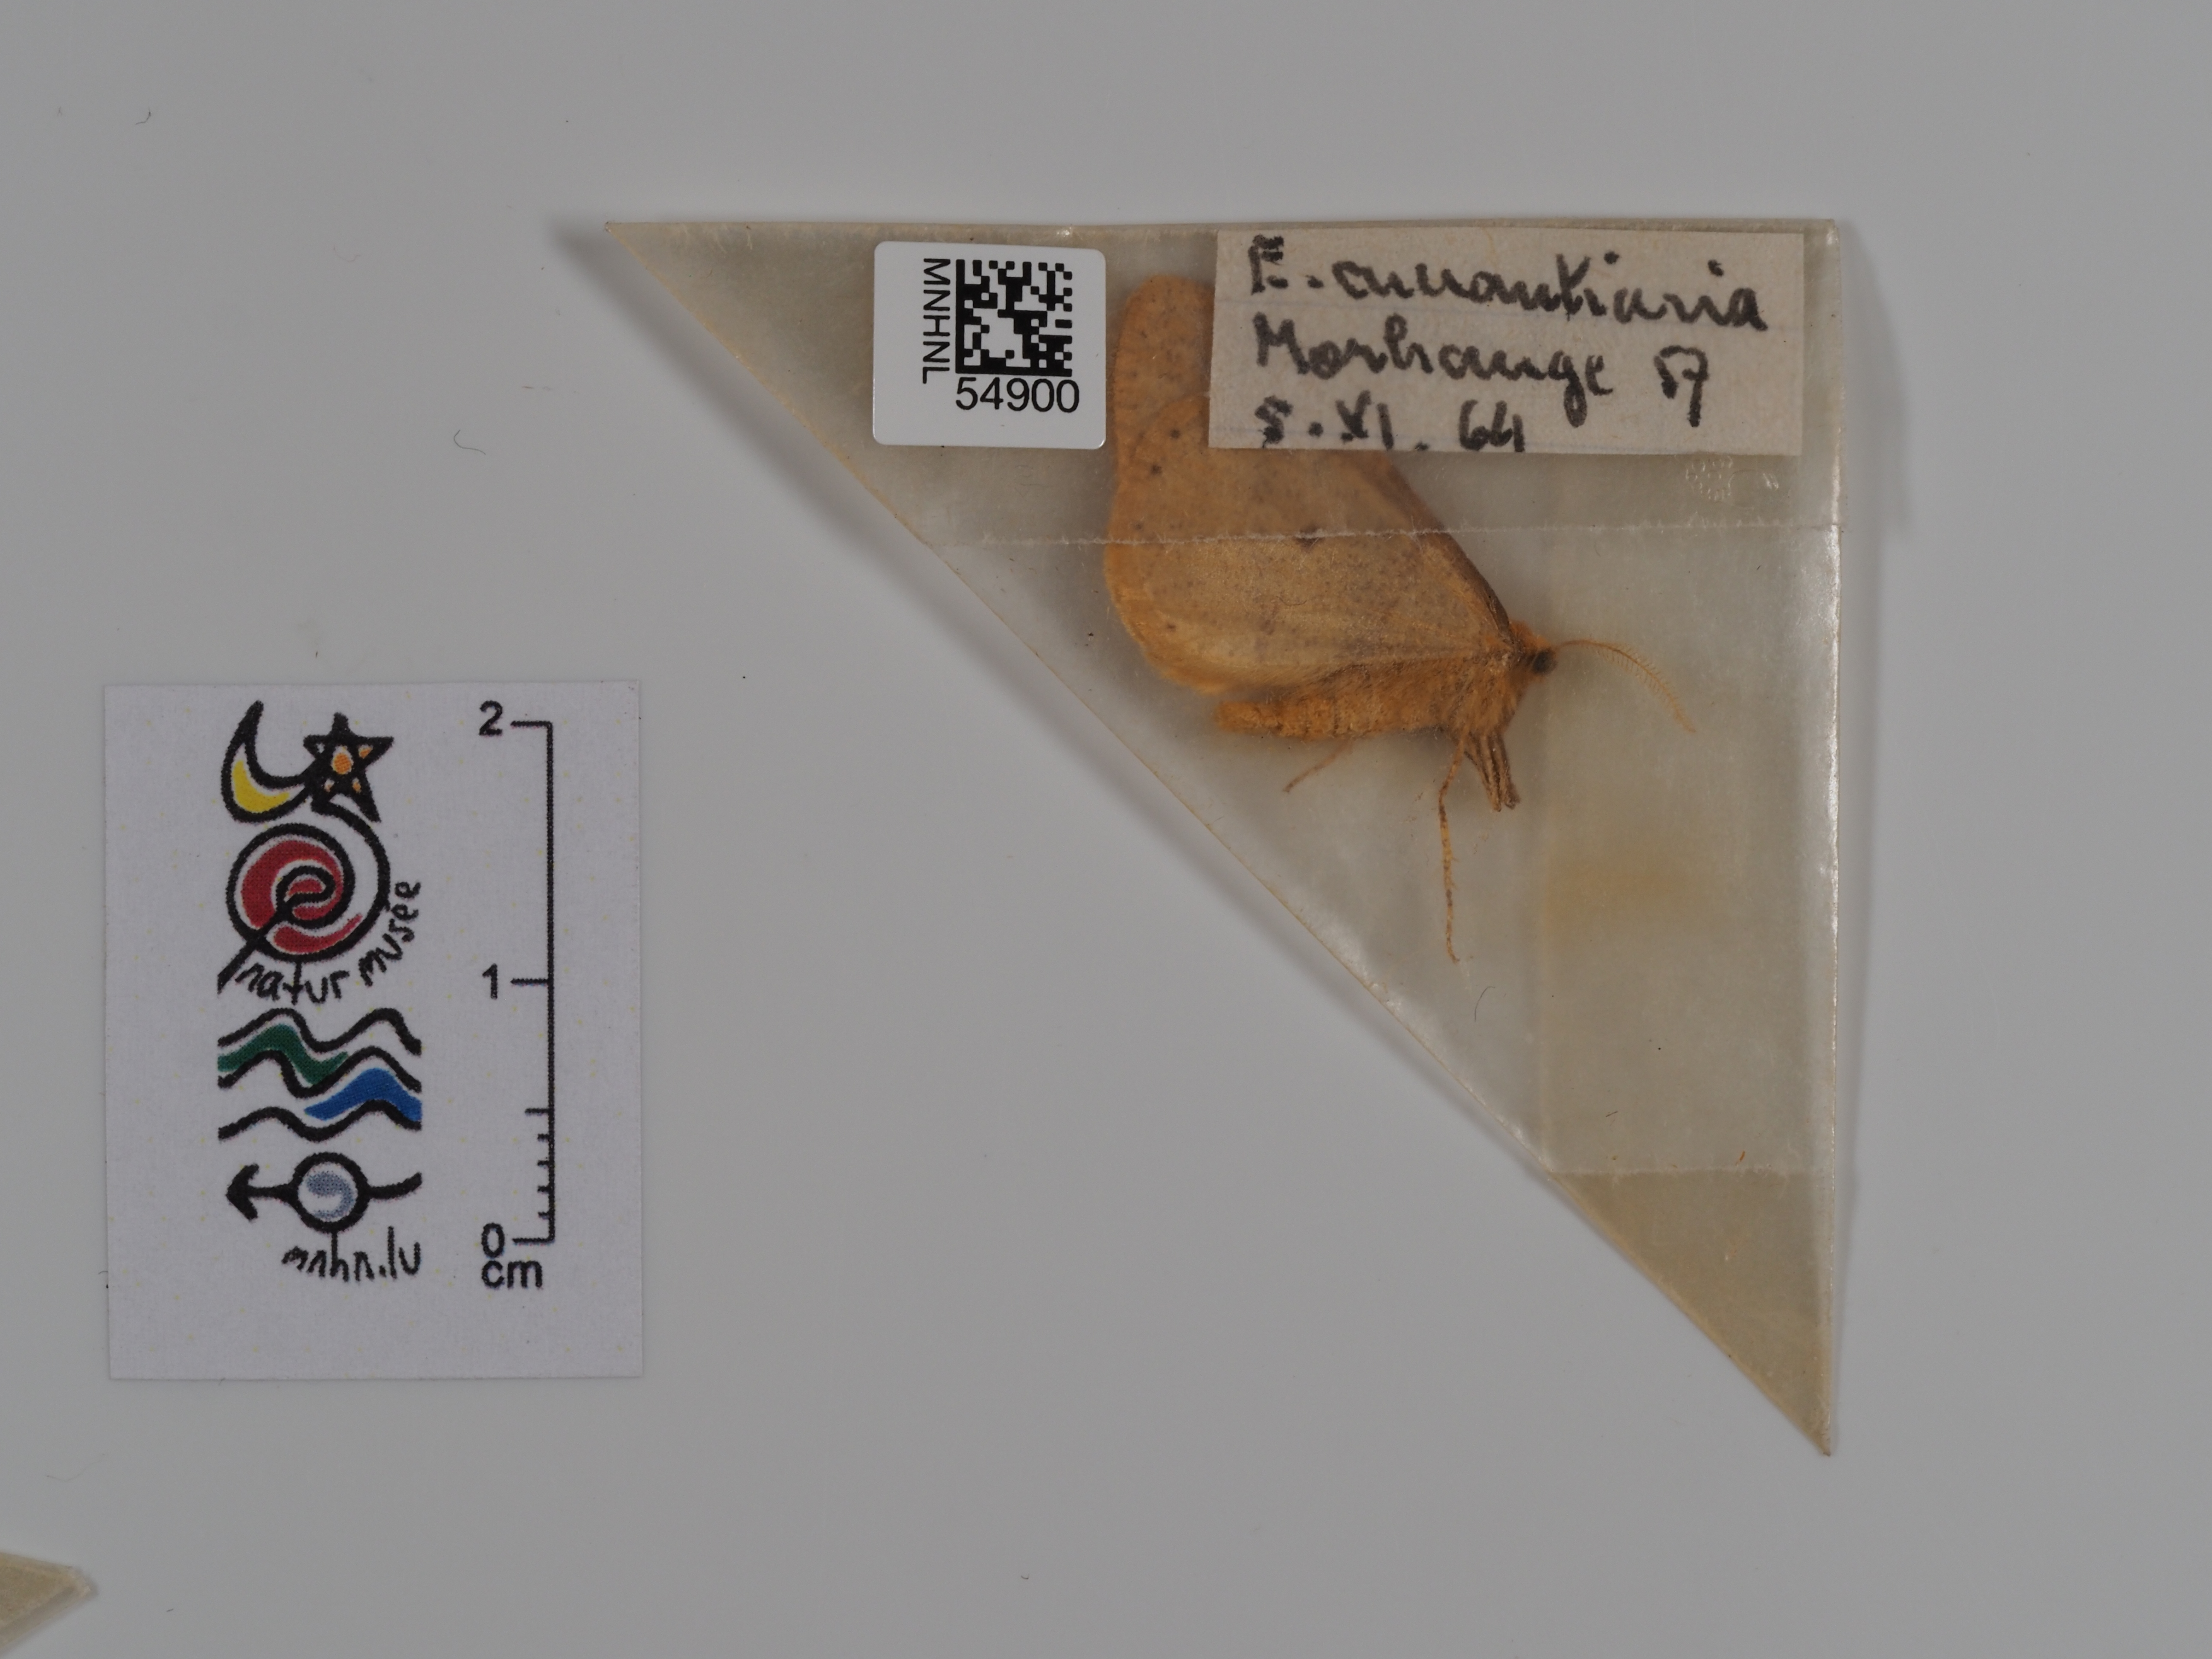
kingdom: Animalia
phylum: Arthropoda
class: Insecta
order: Lepidoptera
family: Geometridae
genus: Erannis
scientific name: Erannis
